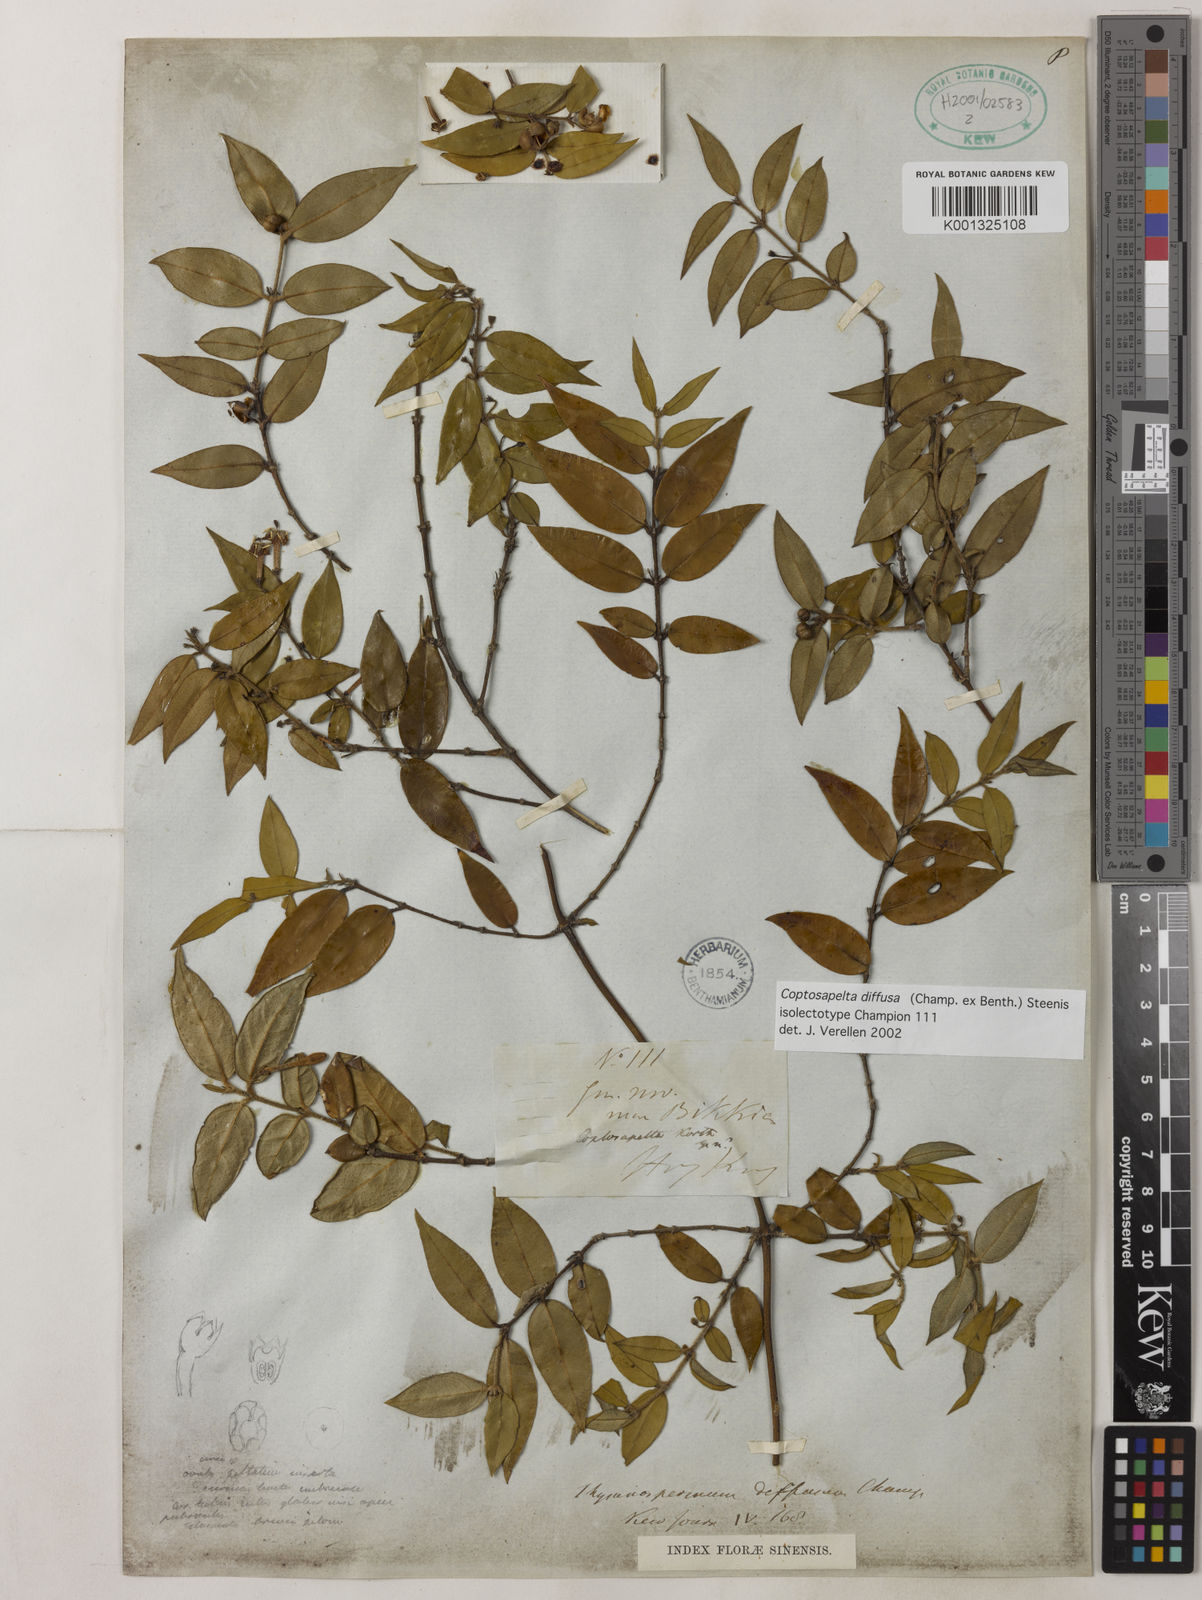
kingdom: Plantae
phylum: Tracheophyta
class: Magnoliopsida
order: Gentianales
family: Rubiaceae
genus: Coptosapelta
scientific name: Coptosapelta diffusa
